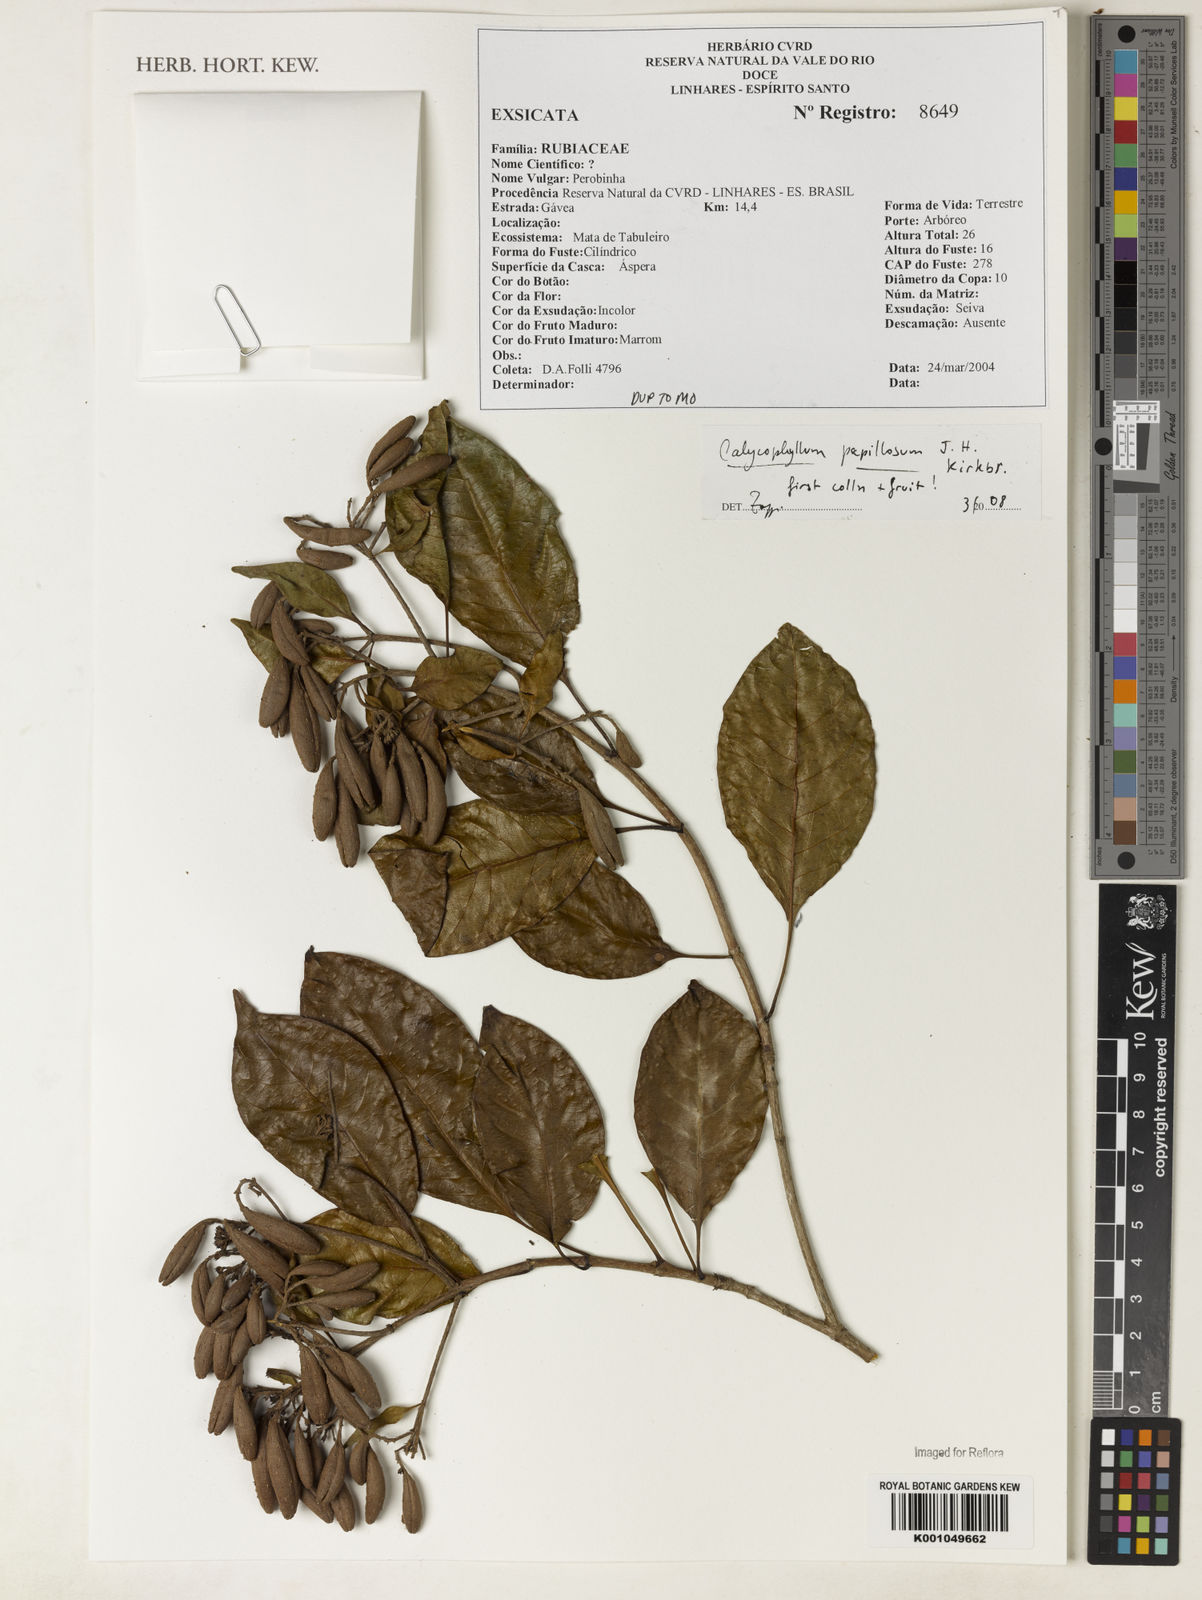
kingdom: Plantae
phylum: Tracheophyta
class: Magnoliopsida
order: Gentianales
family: Rubiaceae
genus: Calycophyllum
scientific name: Calycophyllum papillosum
